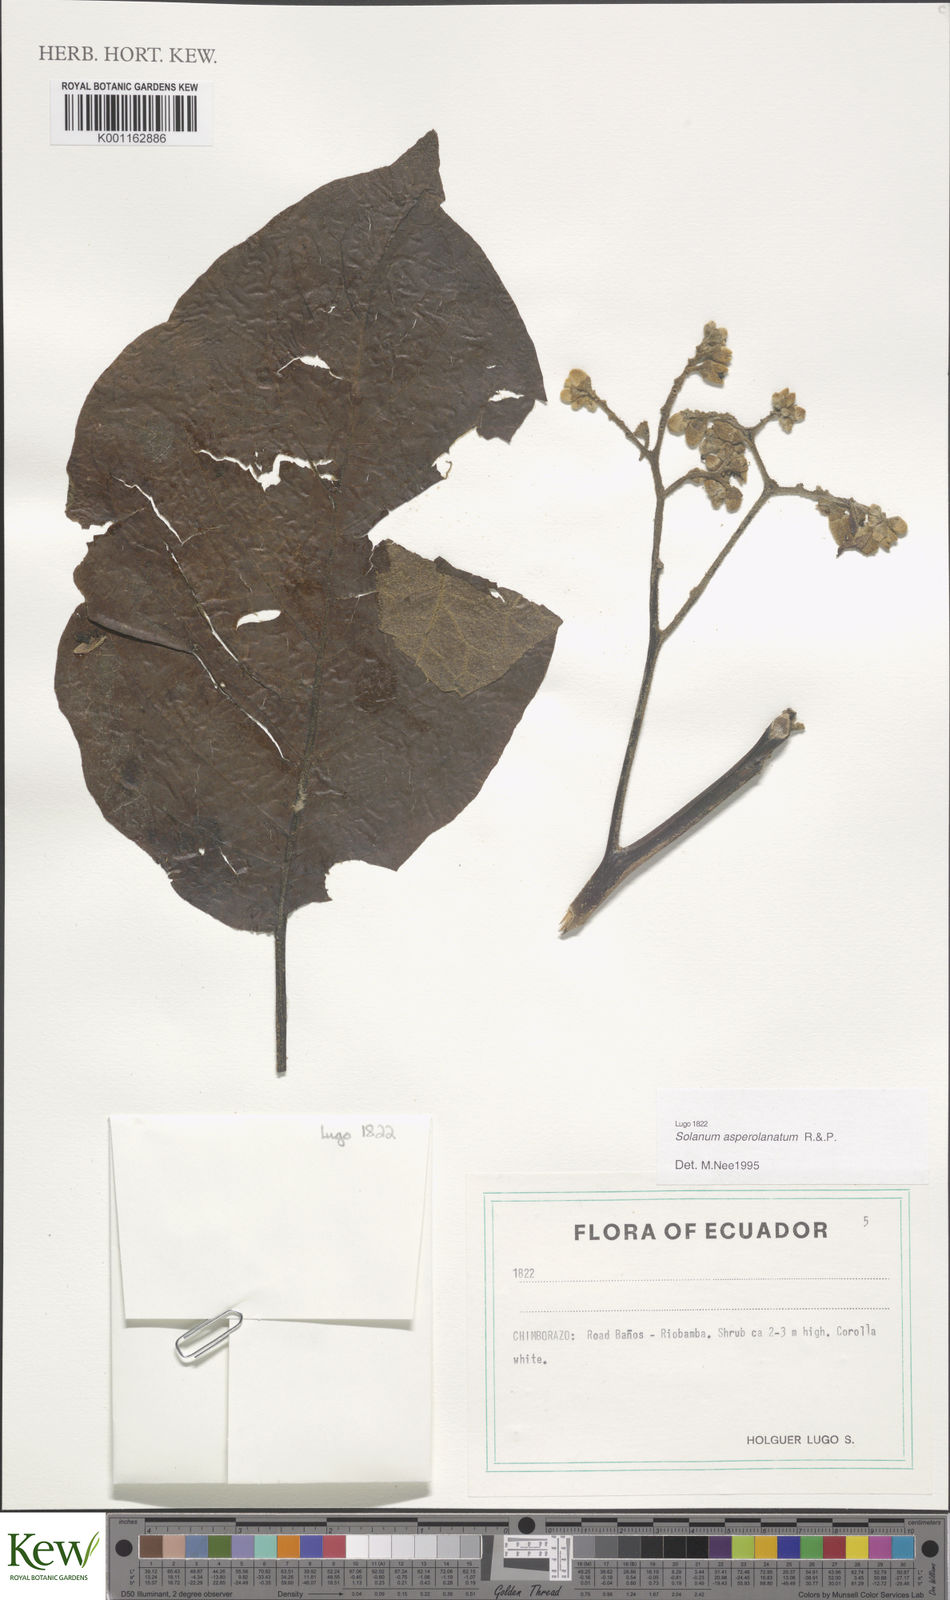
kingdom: Plantae
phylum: Tracheophyta
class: Magnoliopsida
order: Solanales
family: Solanaceae
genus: Solanum
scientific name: Solanum asperolanatum
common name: Devil's-fig
